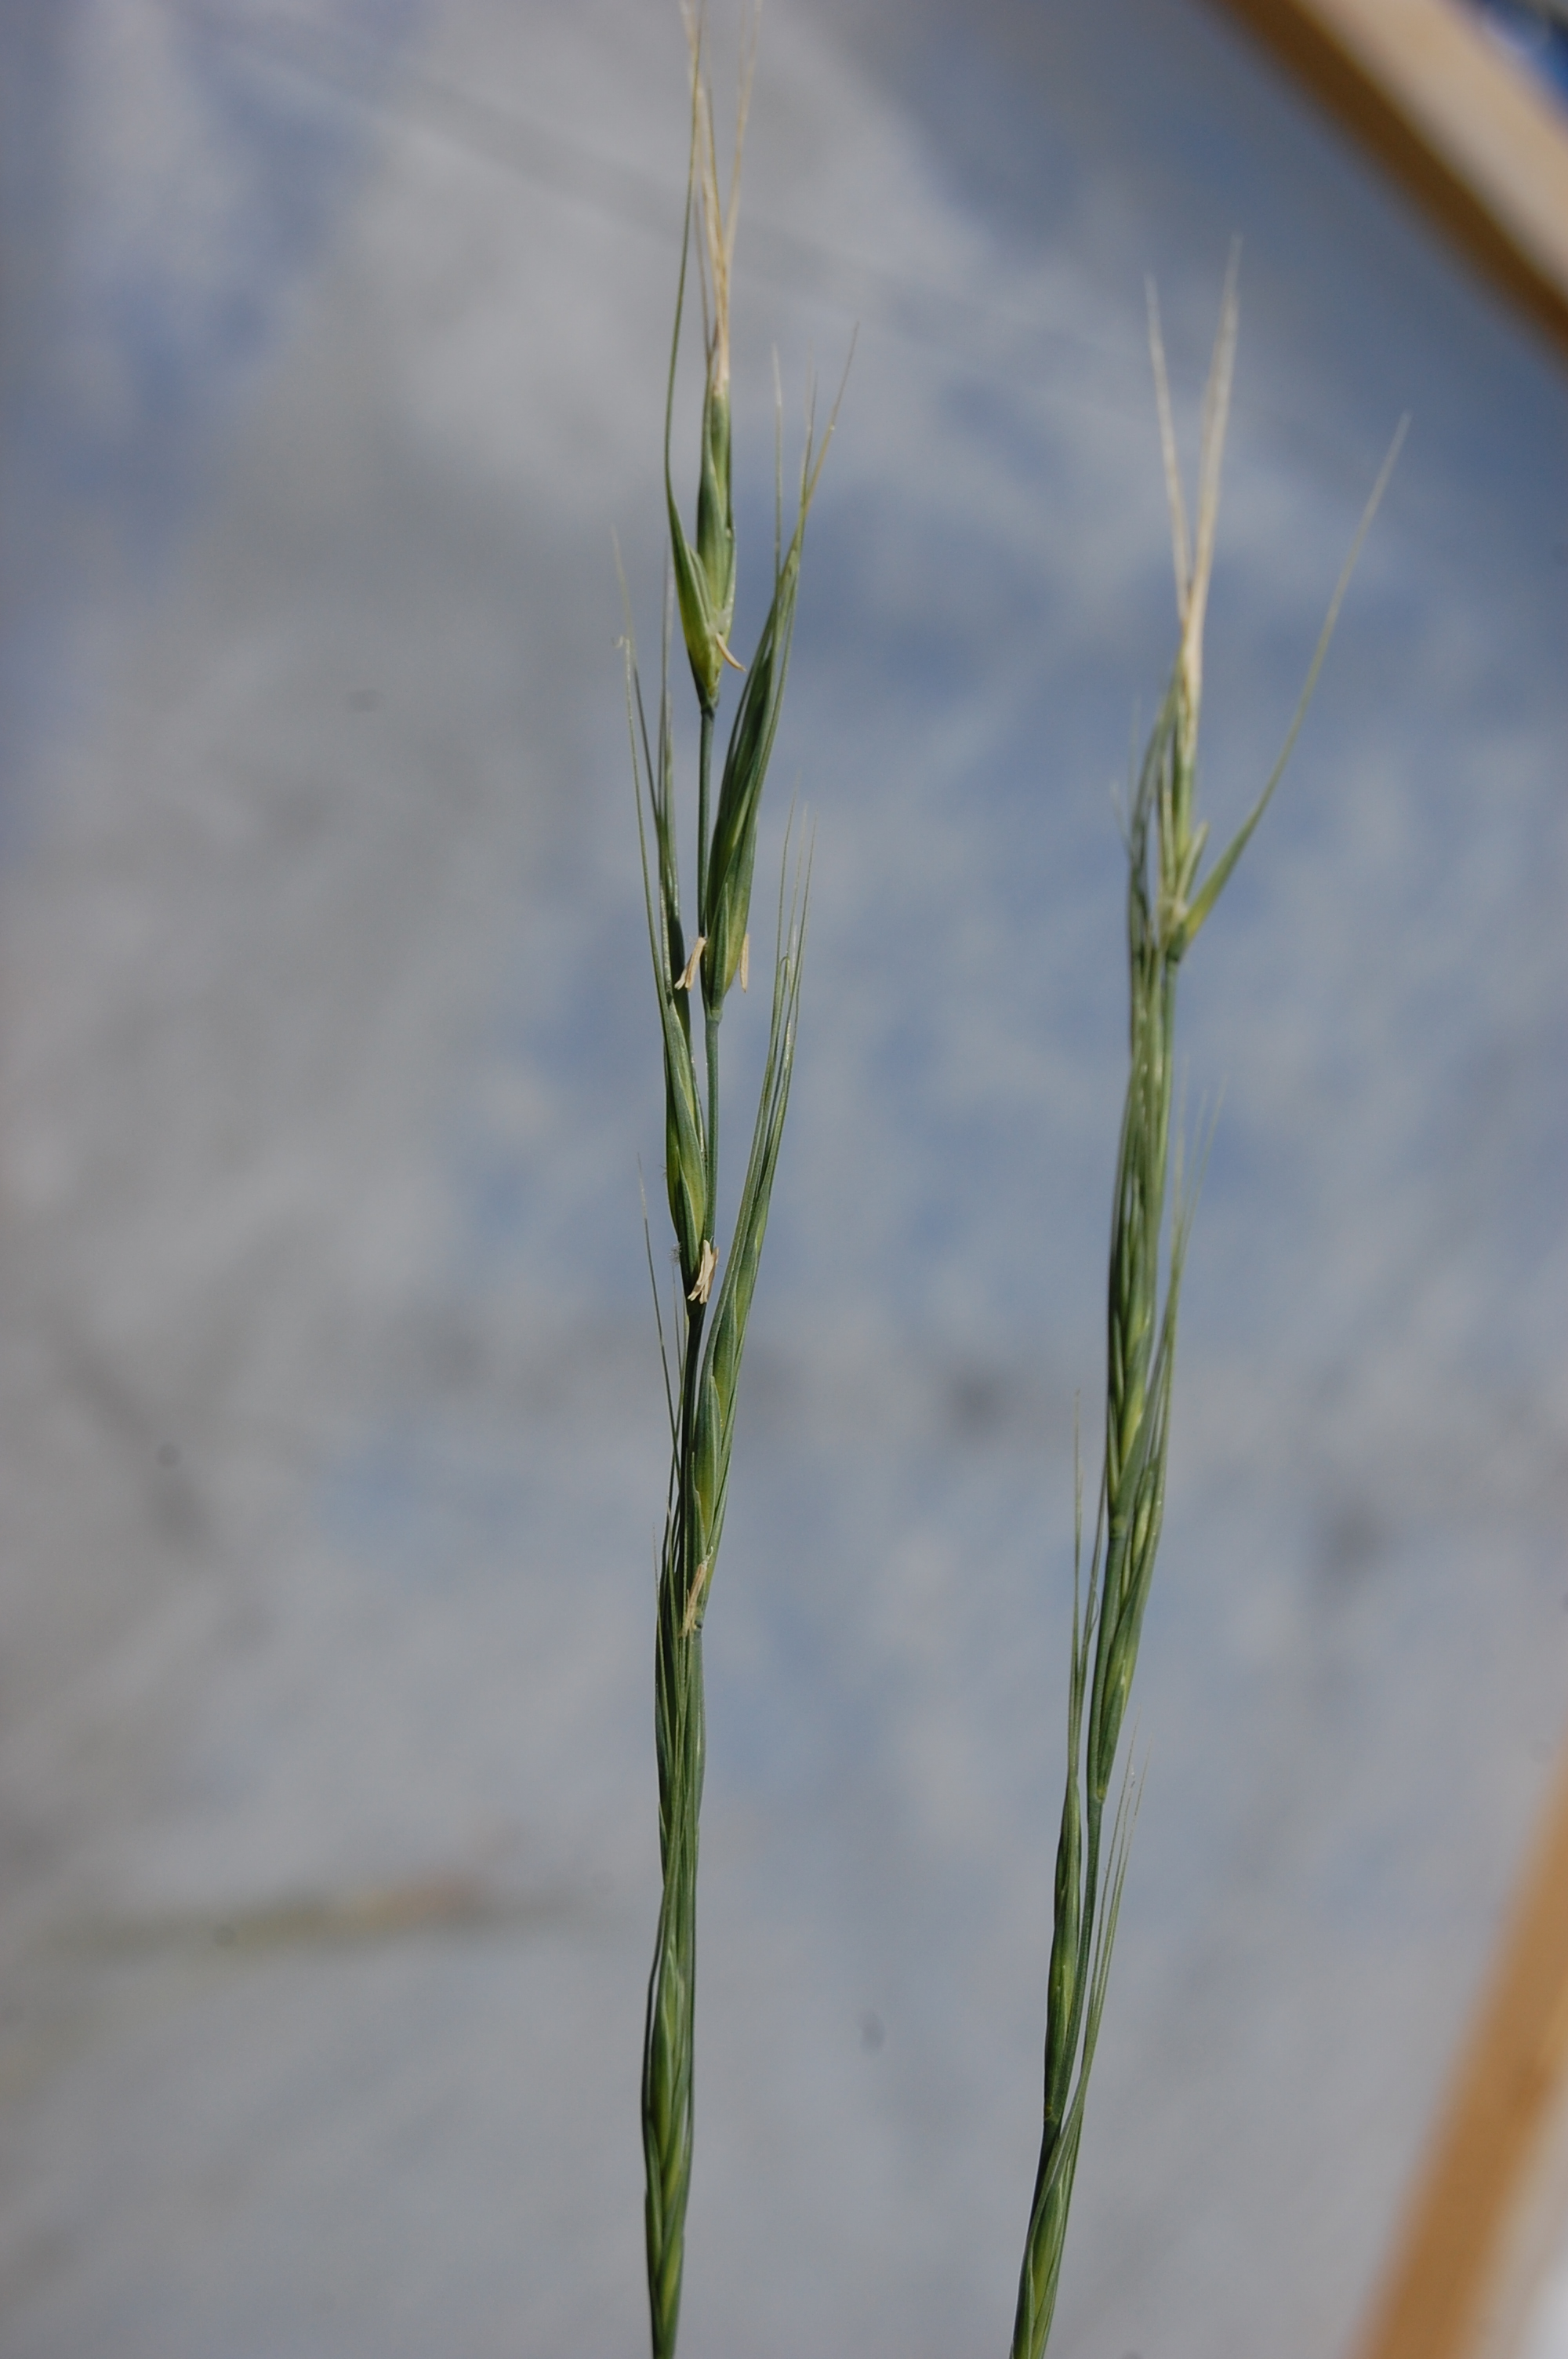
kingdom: Plantae
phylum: Tracheophyta
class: Liliopsida
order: Poales
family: Poaceae
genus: Elymus
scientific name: Elymus jacquemontii
